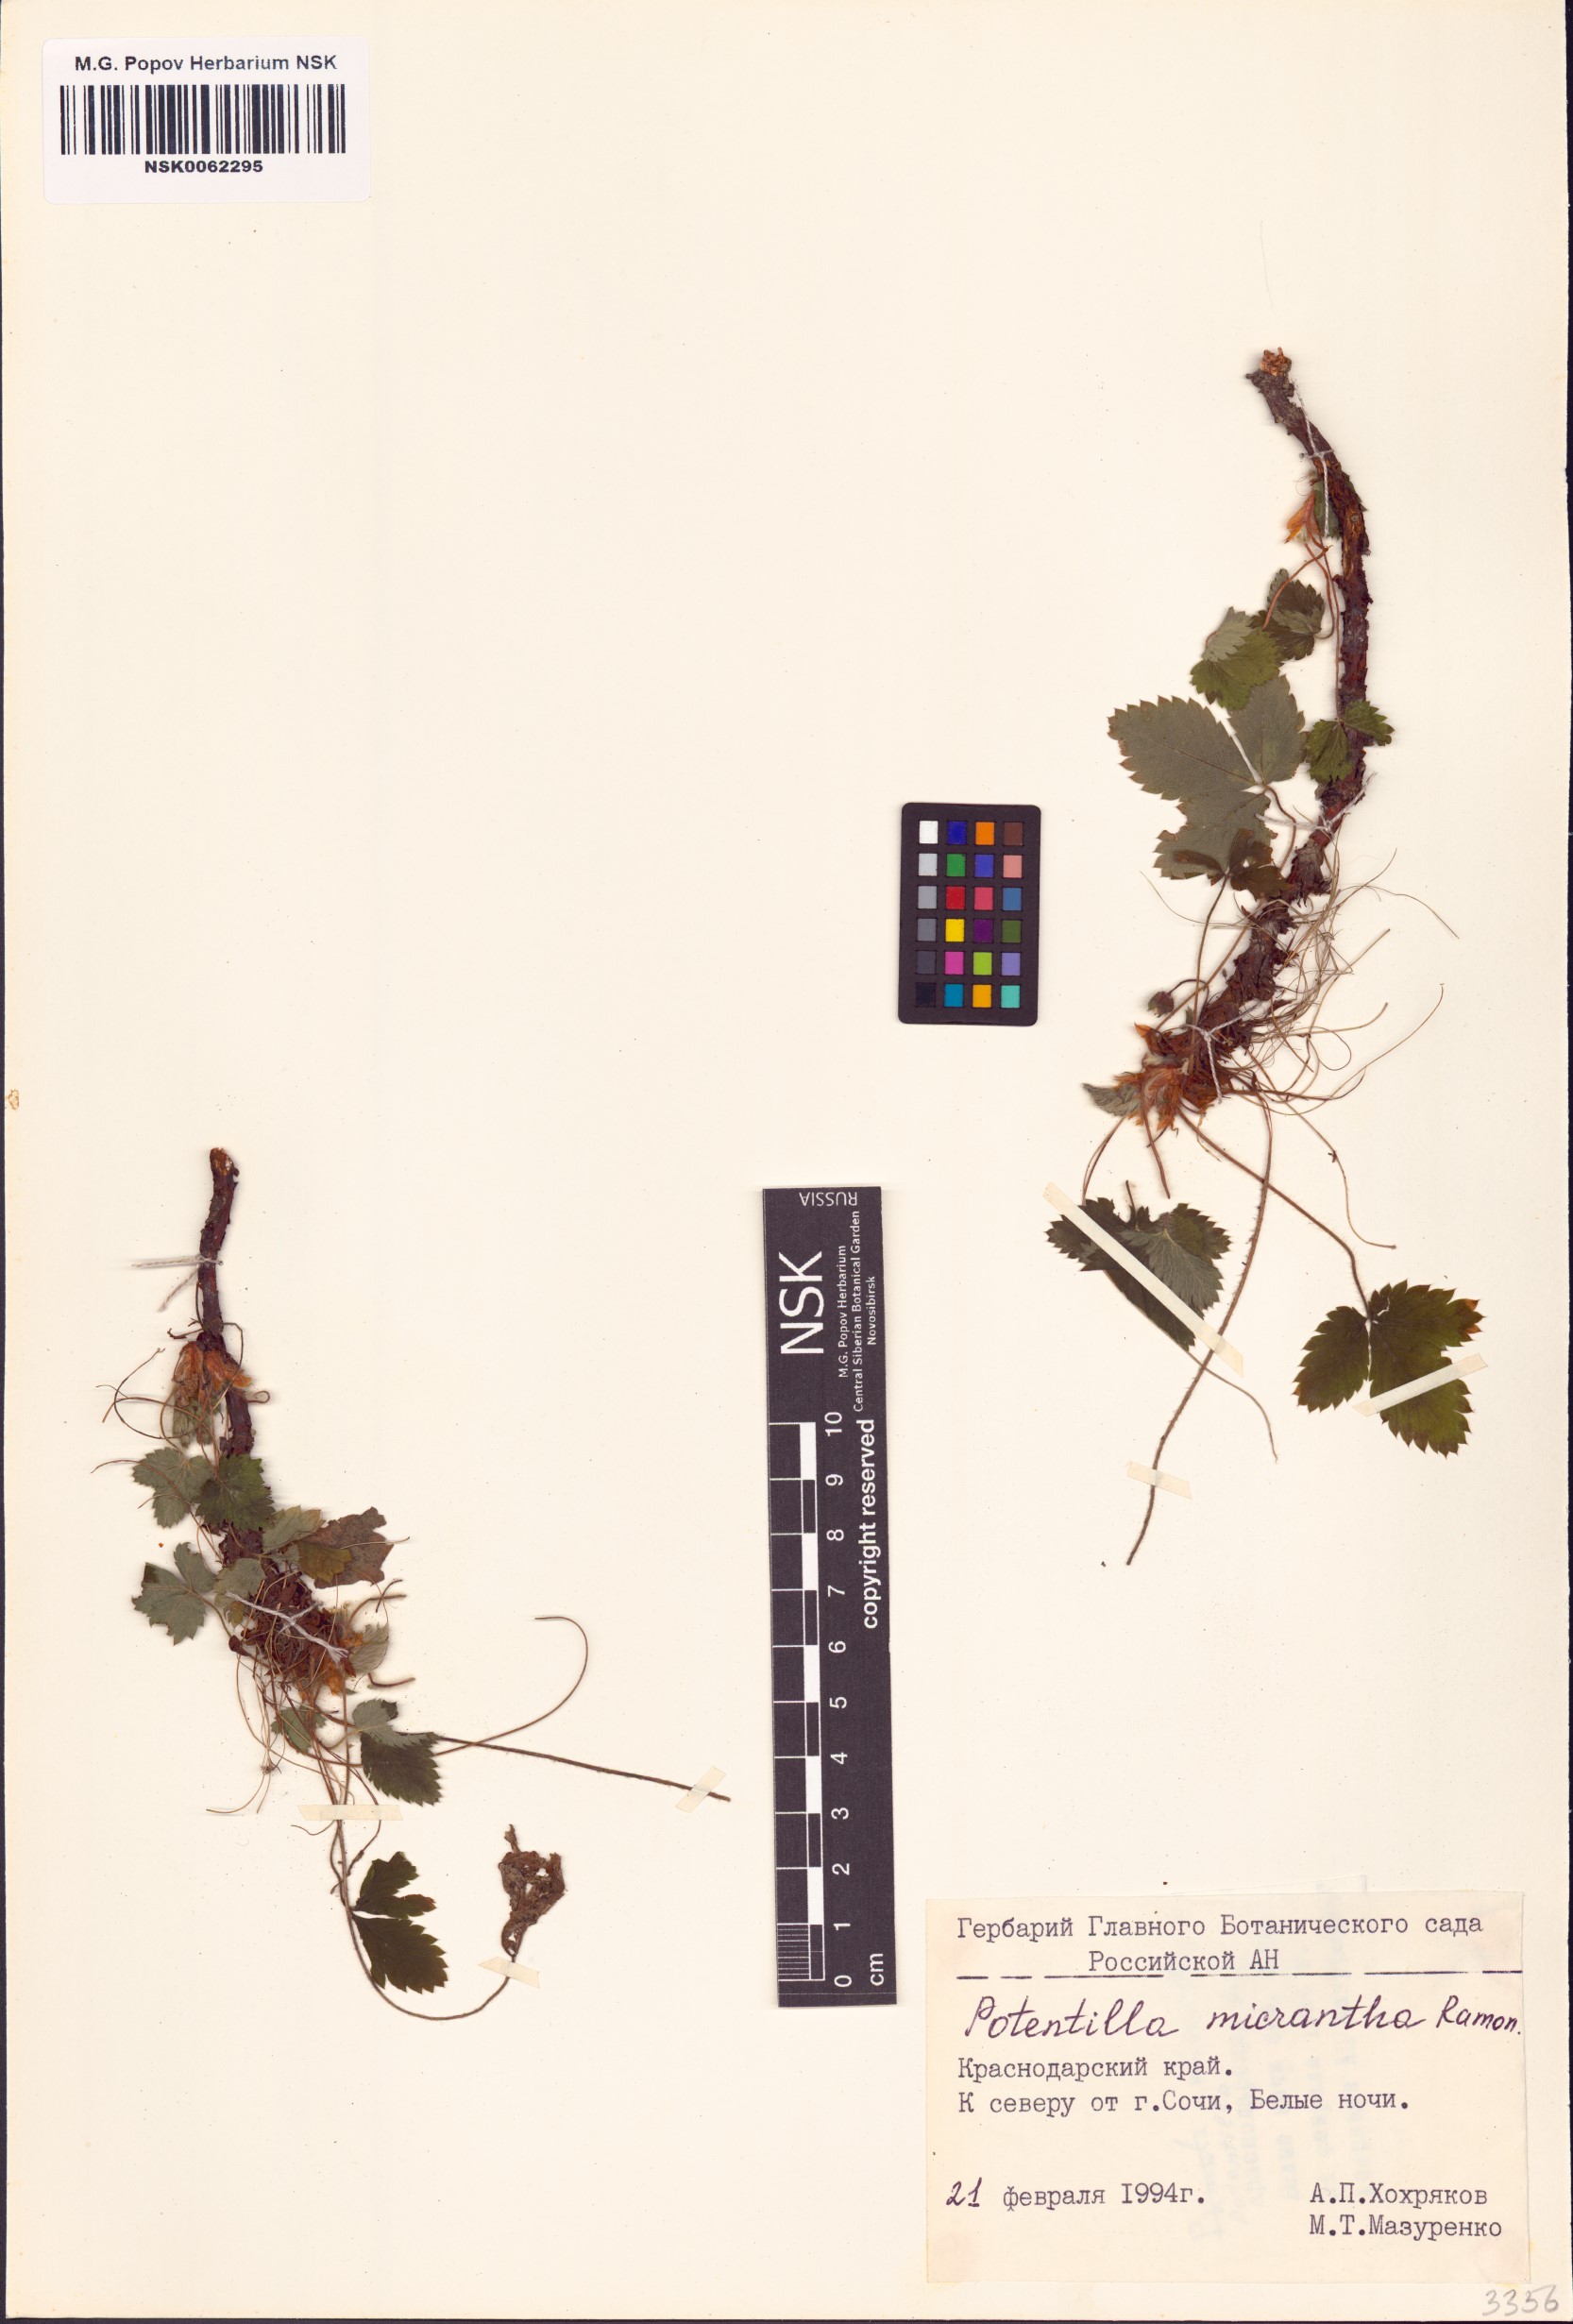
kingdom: Plantae
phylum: Tracheophyta
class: Magnoliopsida
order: Rosales
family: Rosaceae
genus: Potentilla
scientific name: Potentilla micrantha
